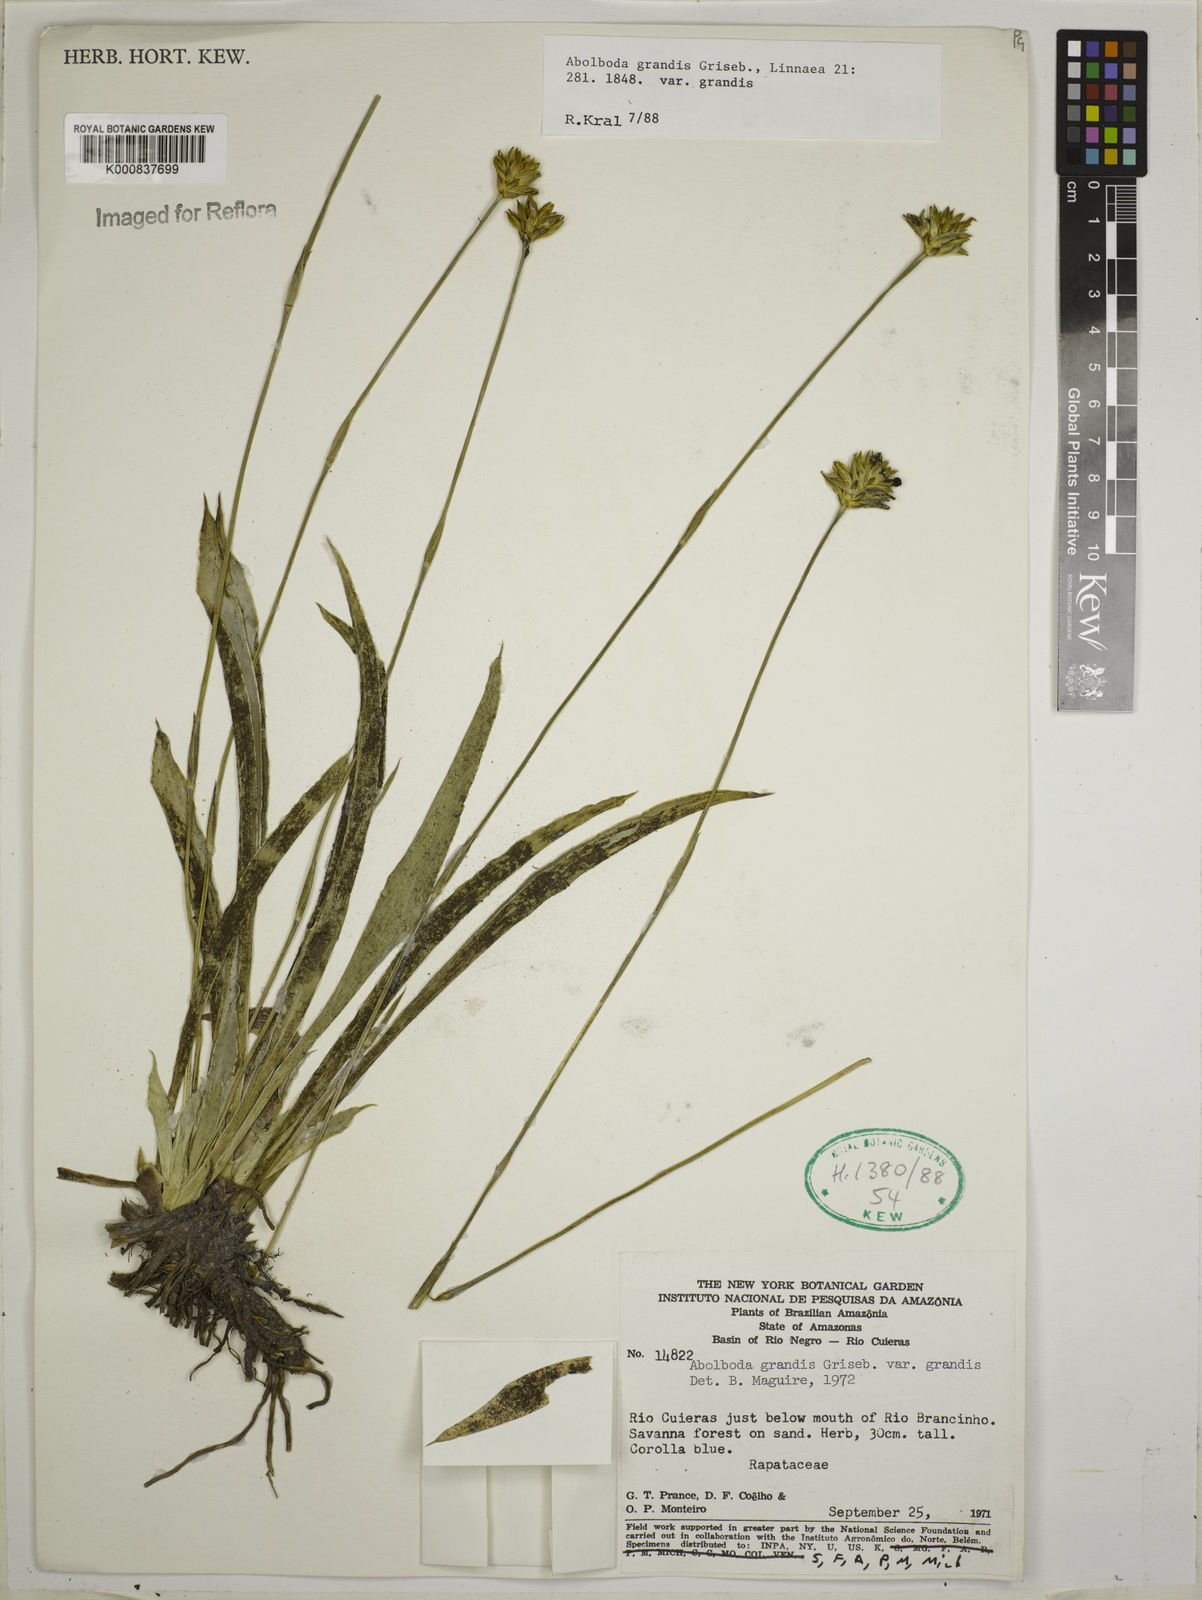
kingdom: Plantae
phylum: Tracheophyta
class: Liliopsida
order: Poales
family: Xyridaceae
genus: Abolboda
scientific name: Abolboda grandis
